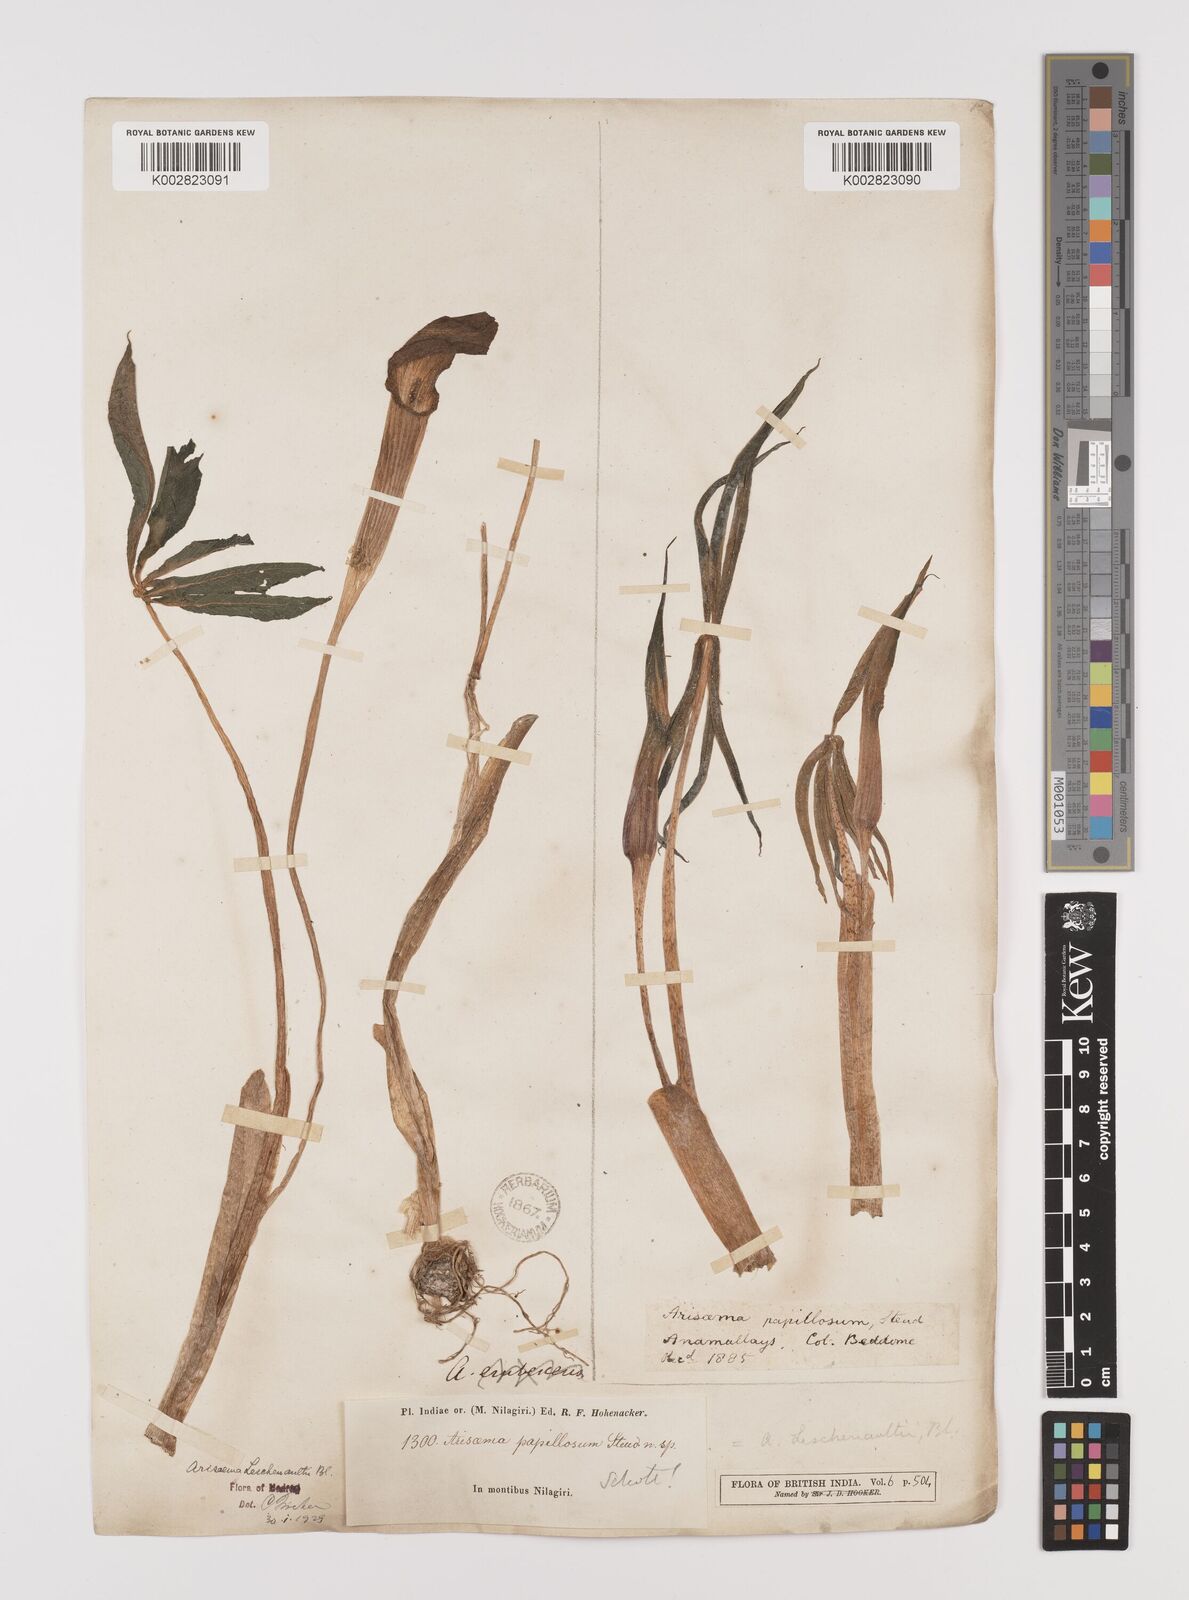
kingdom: Plantae
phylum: Tracheophyta
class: Liliopsida
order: Alismatales
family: Araceae
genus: Arisaema
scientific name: Arisaema leschenaultii
